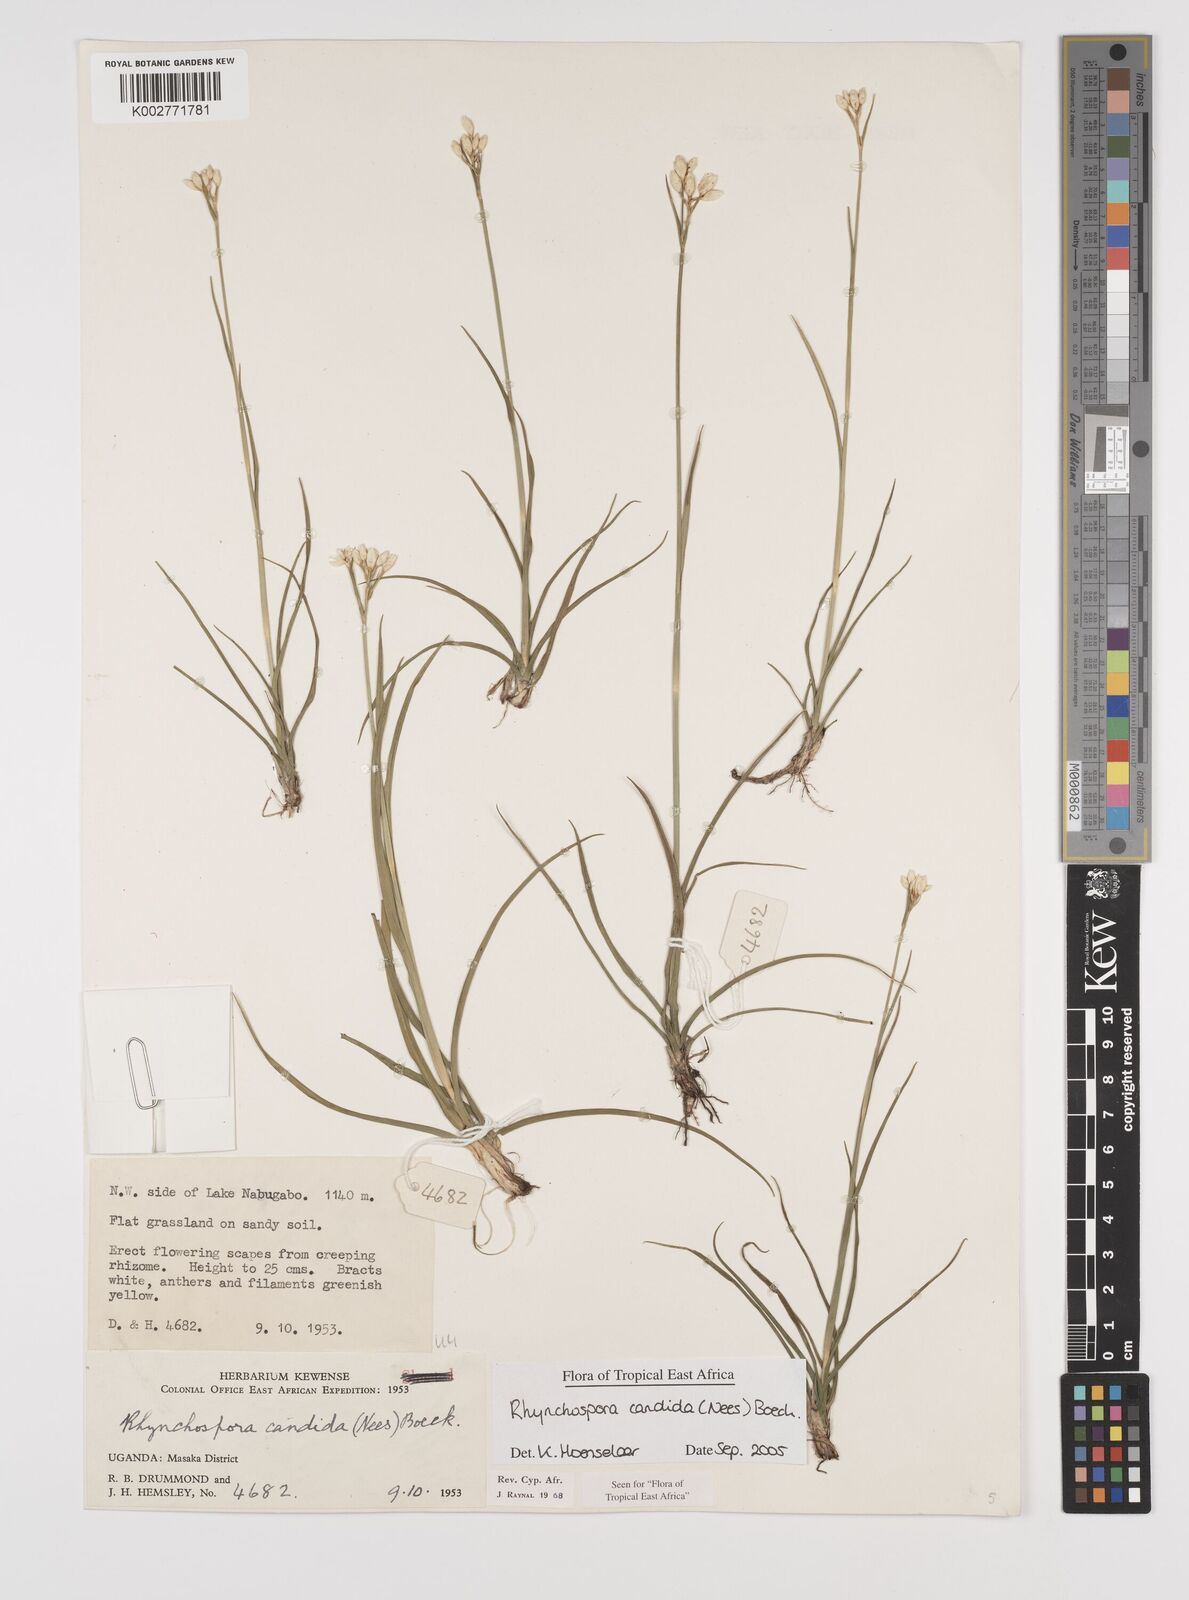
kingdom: Plantae
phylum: Tracheophyta
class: Liliopsida
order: Poales
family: Cyperaceae
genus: Rhynchospora
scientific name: Rhynchospora candida
